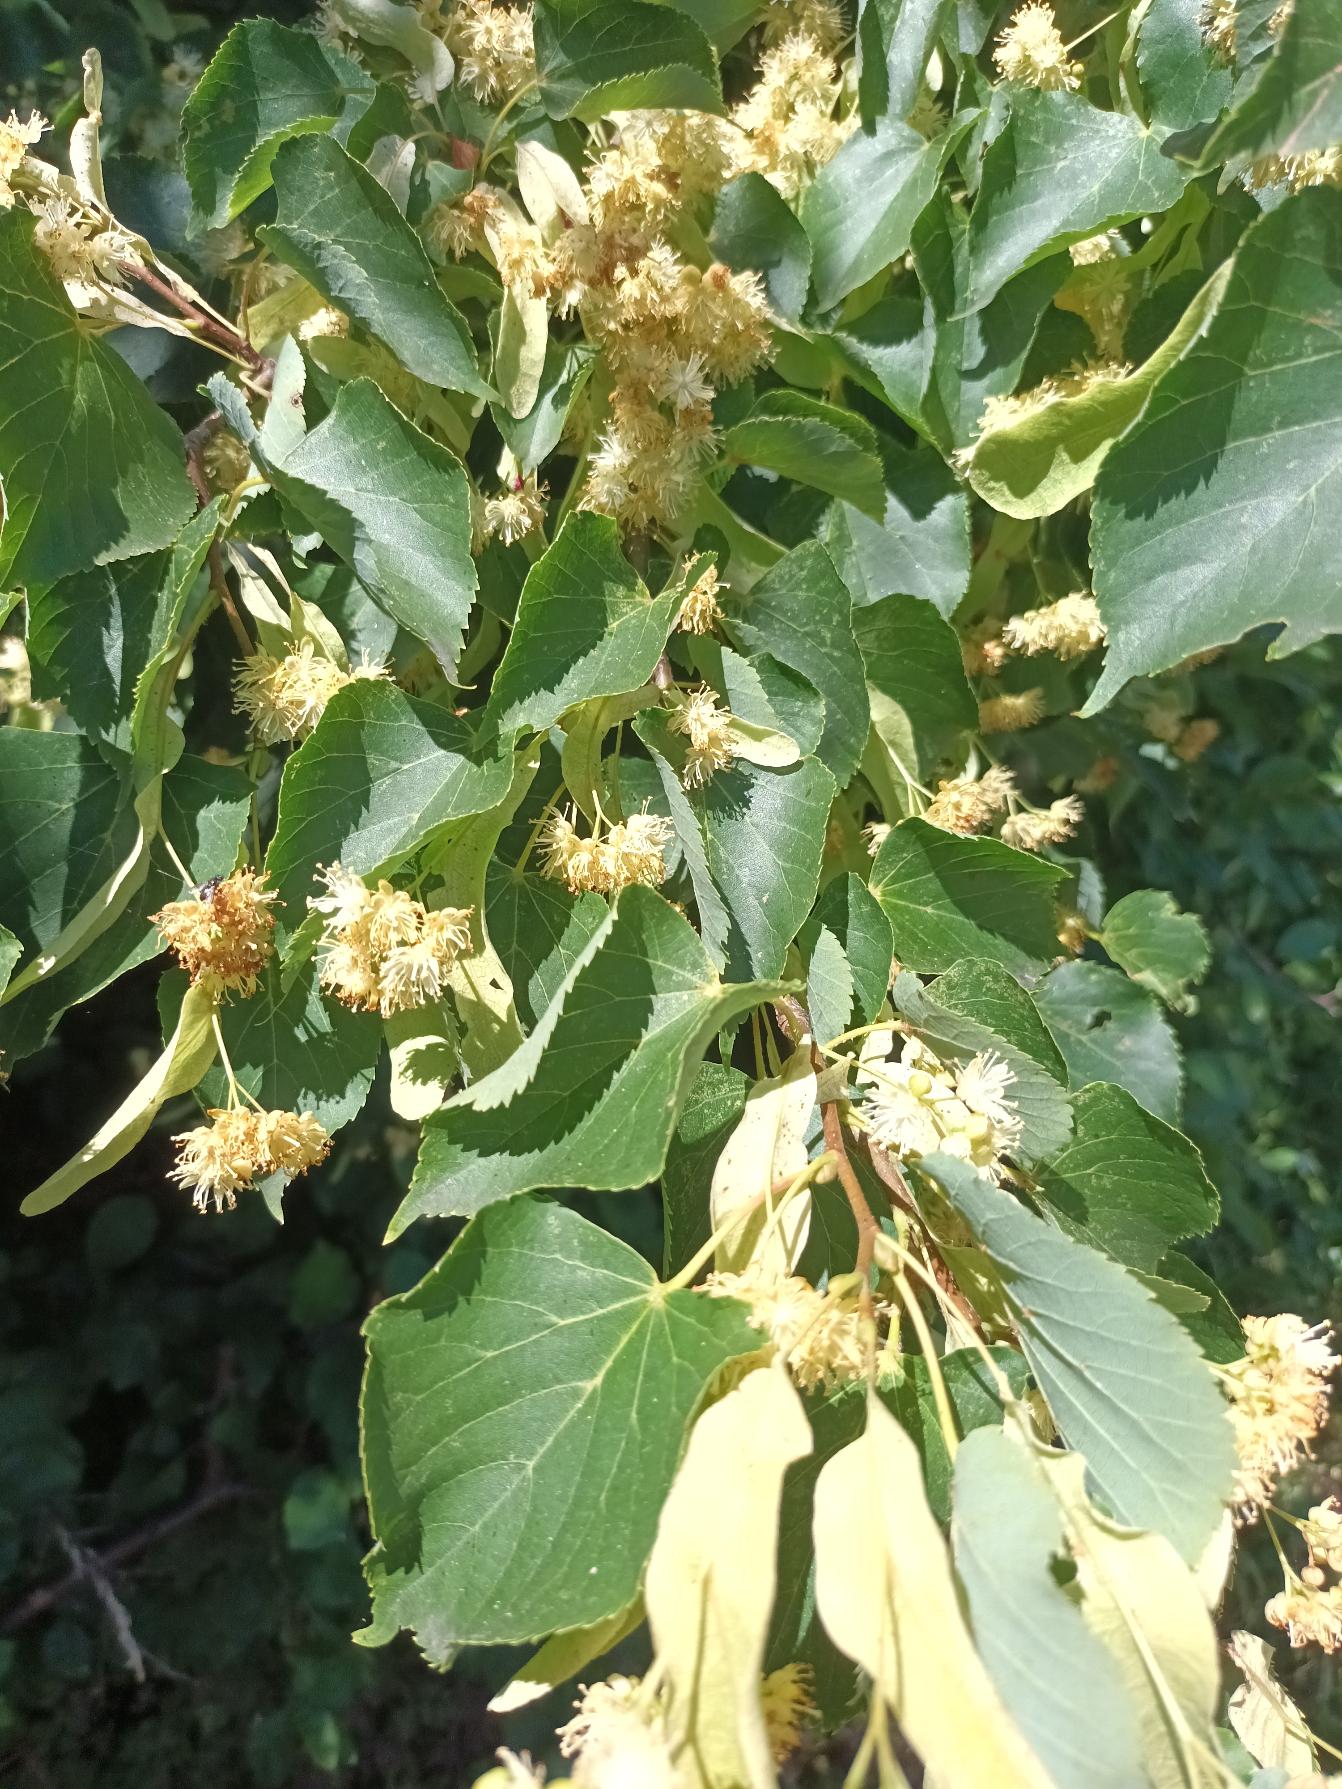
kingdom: Plantae
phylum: Tracheophyta
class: Magnoliopsida
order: Malvales
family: Malvaceae
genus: Tilia
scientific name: Tilia cordata
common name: Småbladet lind
